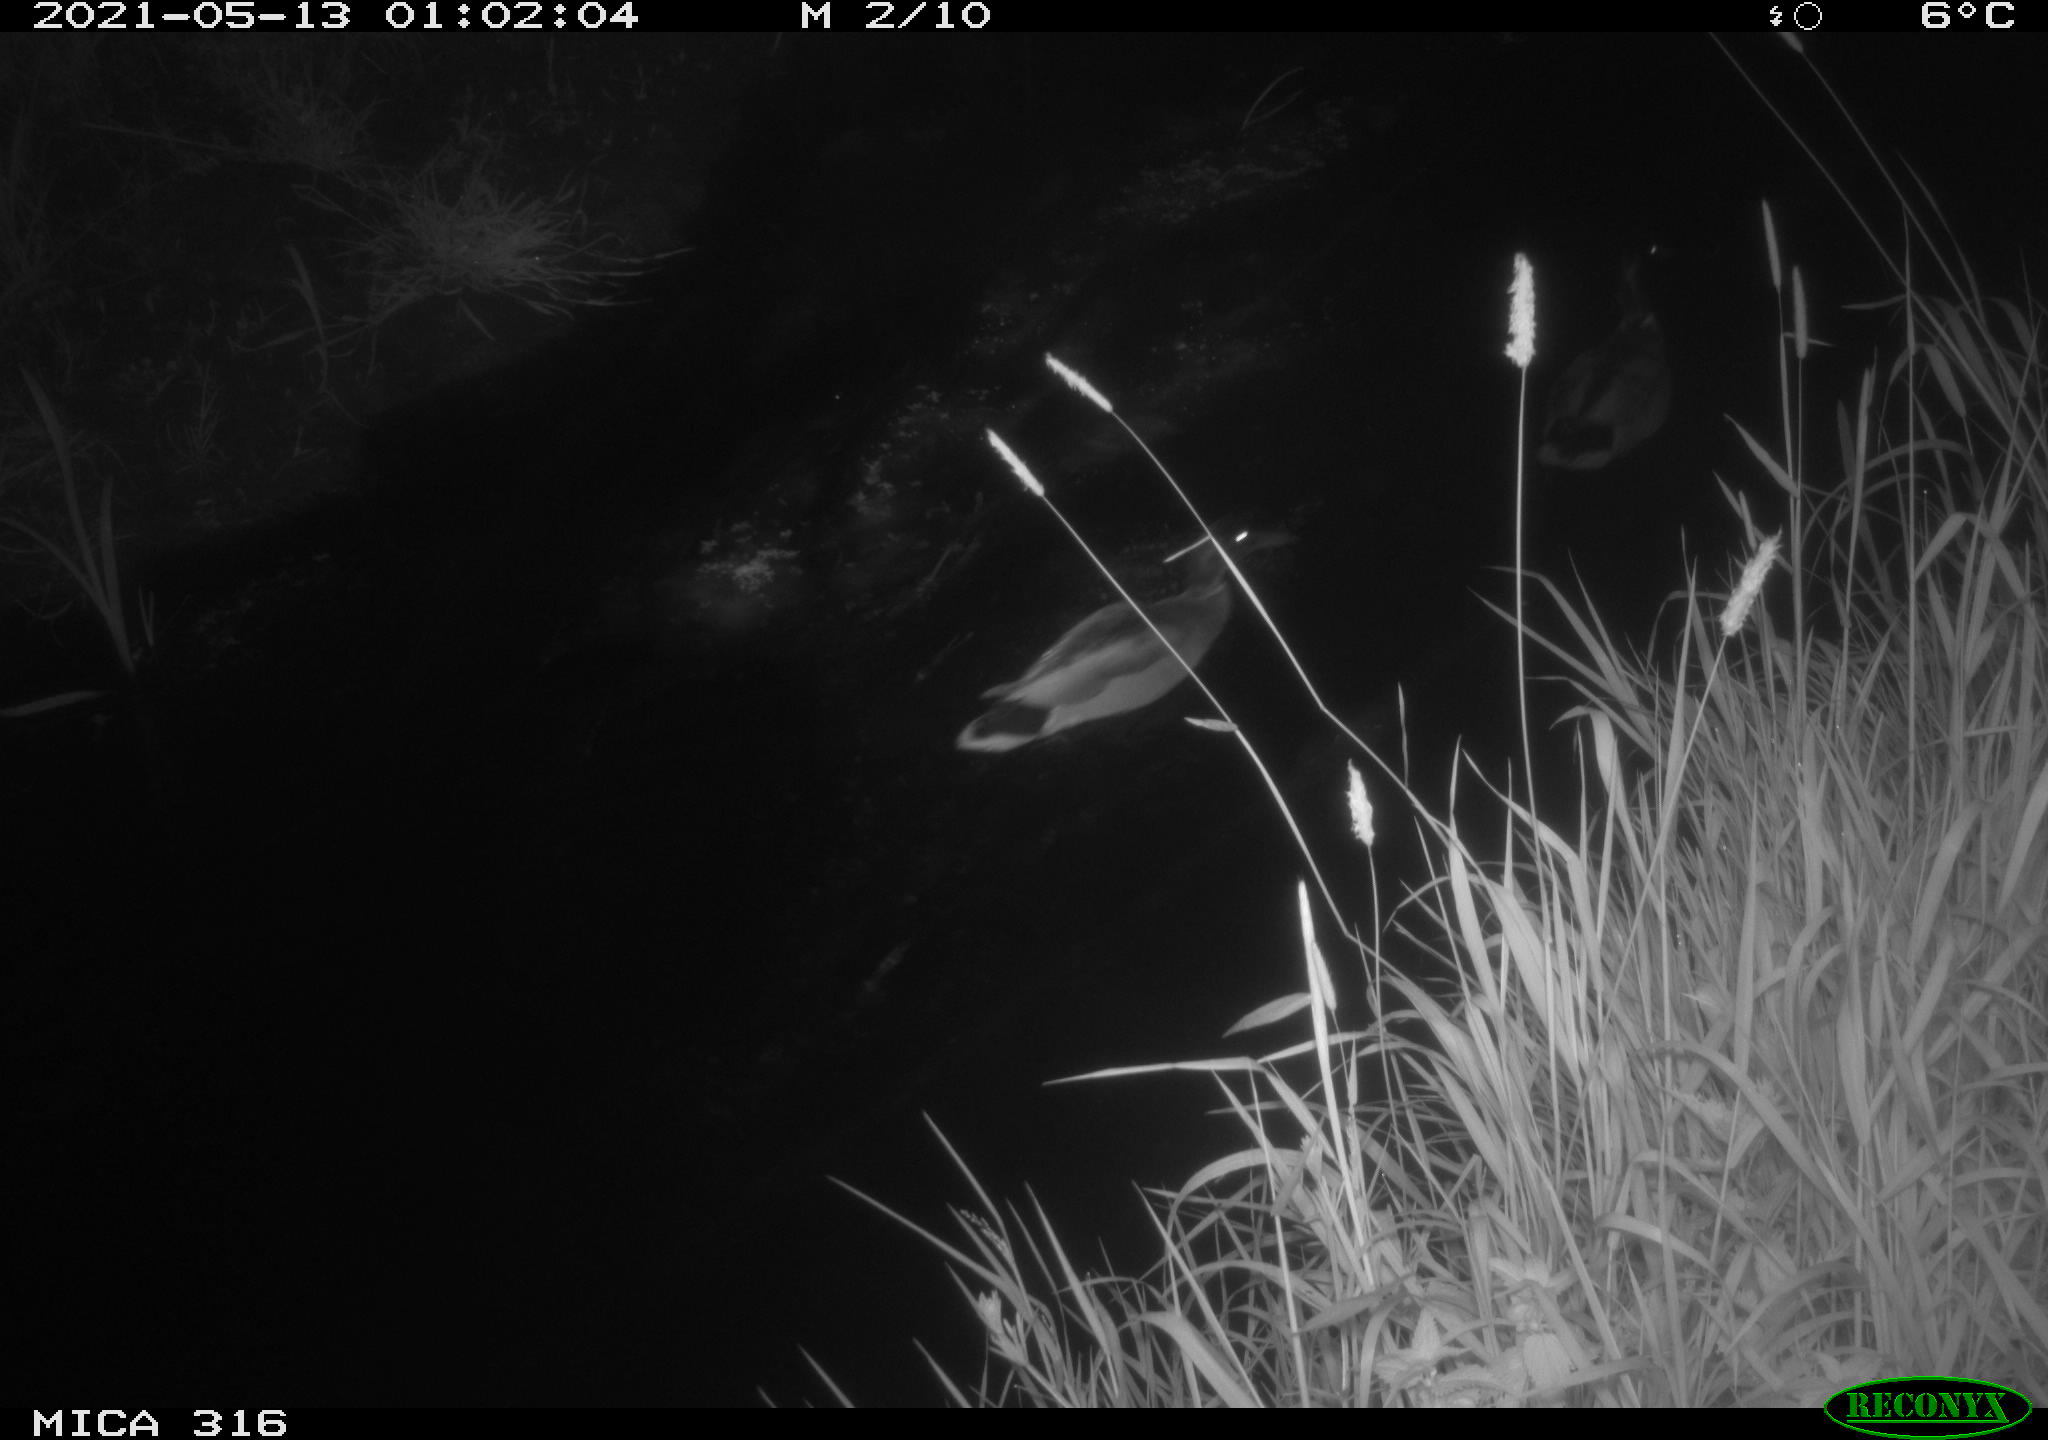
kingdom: Animalia
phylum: Chordata
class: Aves
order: Gruiformes
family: Rallidae
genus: Gallinula
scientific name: Gallinula chloropus
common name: Common moorhen
